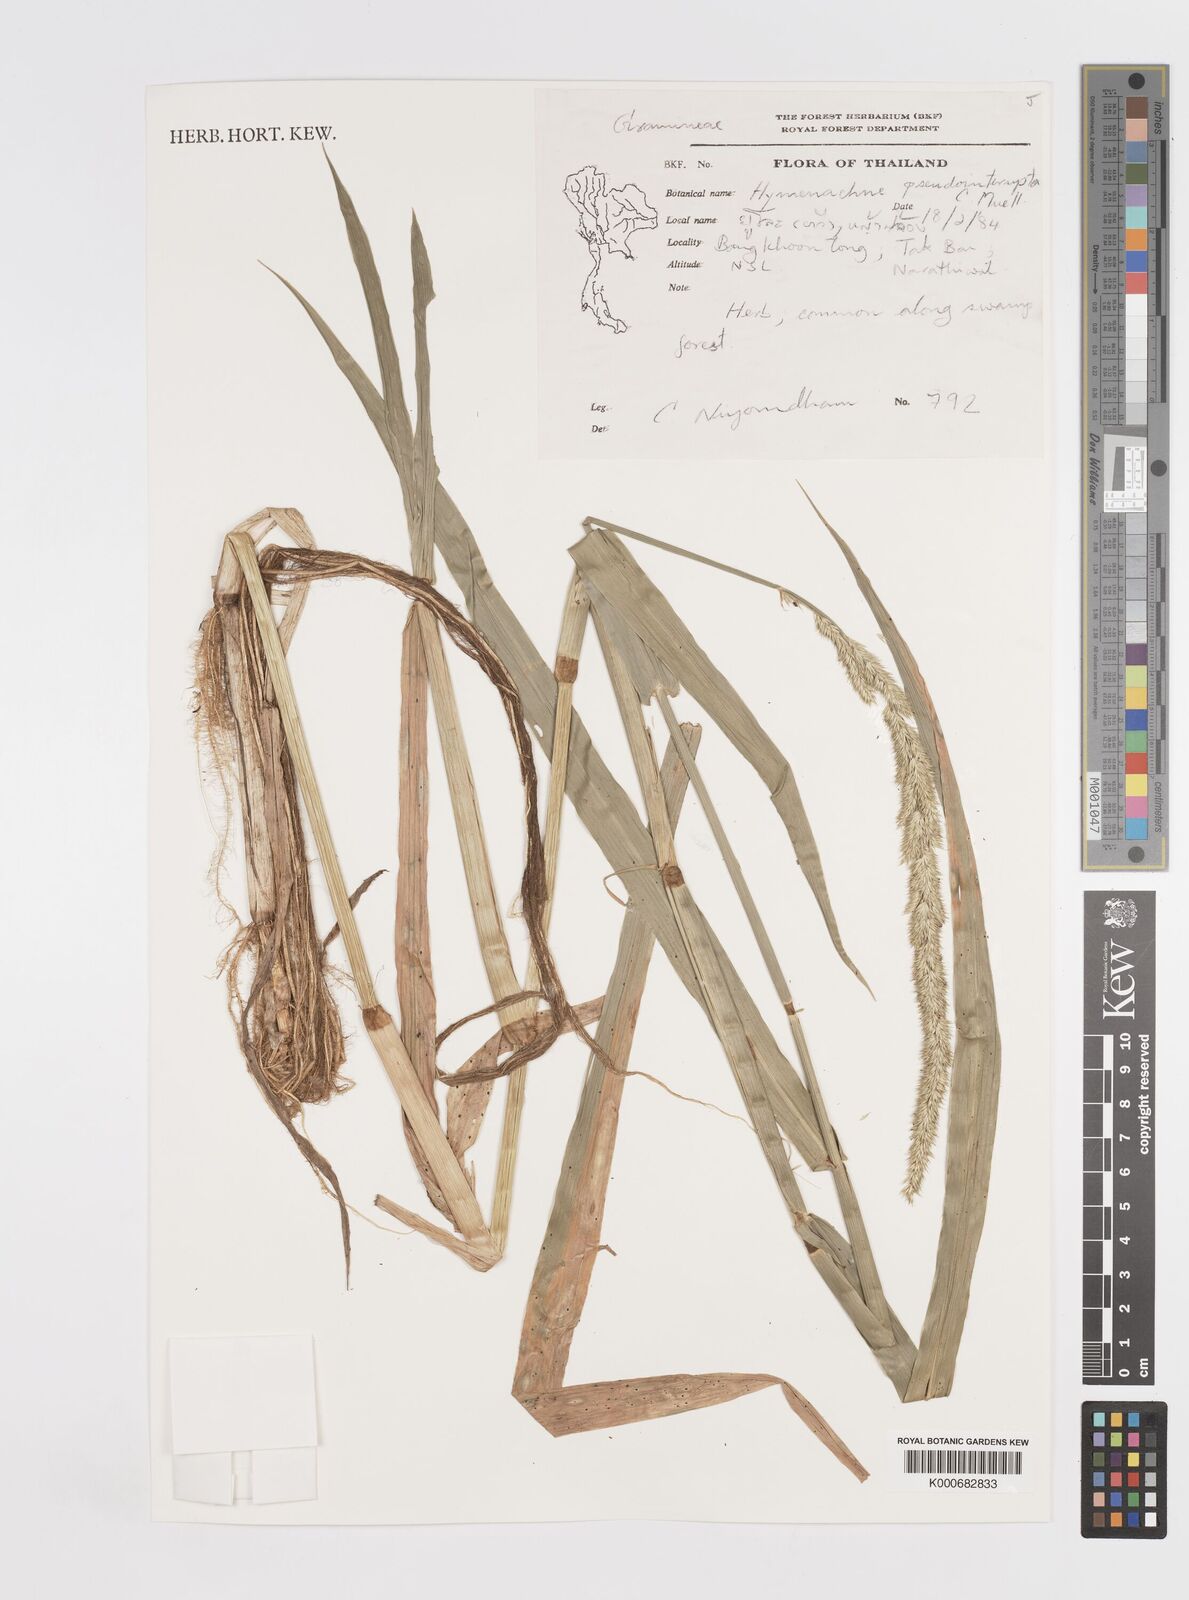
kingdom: Plantae
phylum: Tracheophyta
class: Liliopsida
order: Poales
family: Poaceae
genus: Hymenachne
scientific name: Hymenachne amplexicaulis
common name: Olive hymenachne
